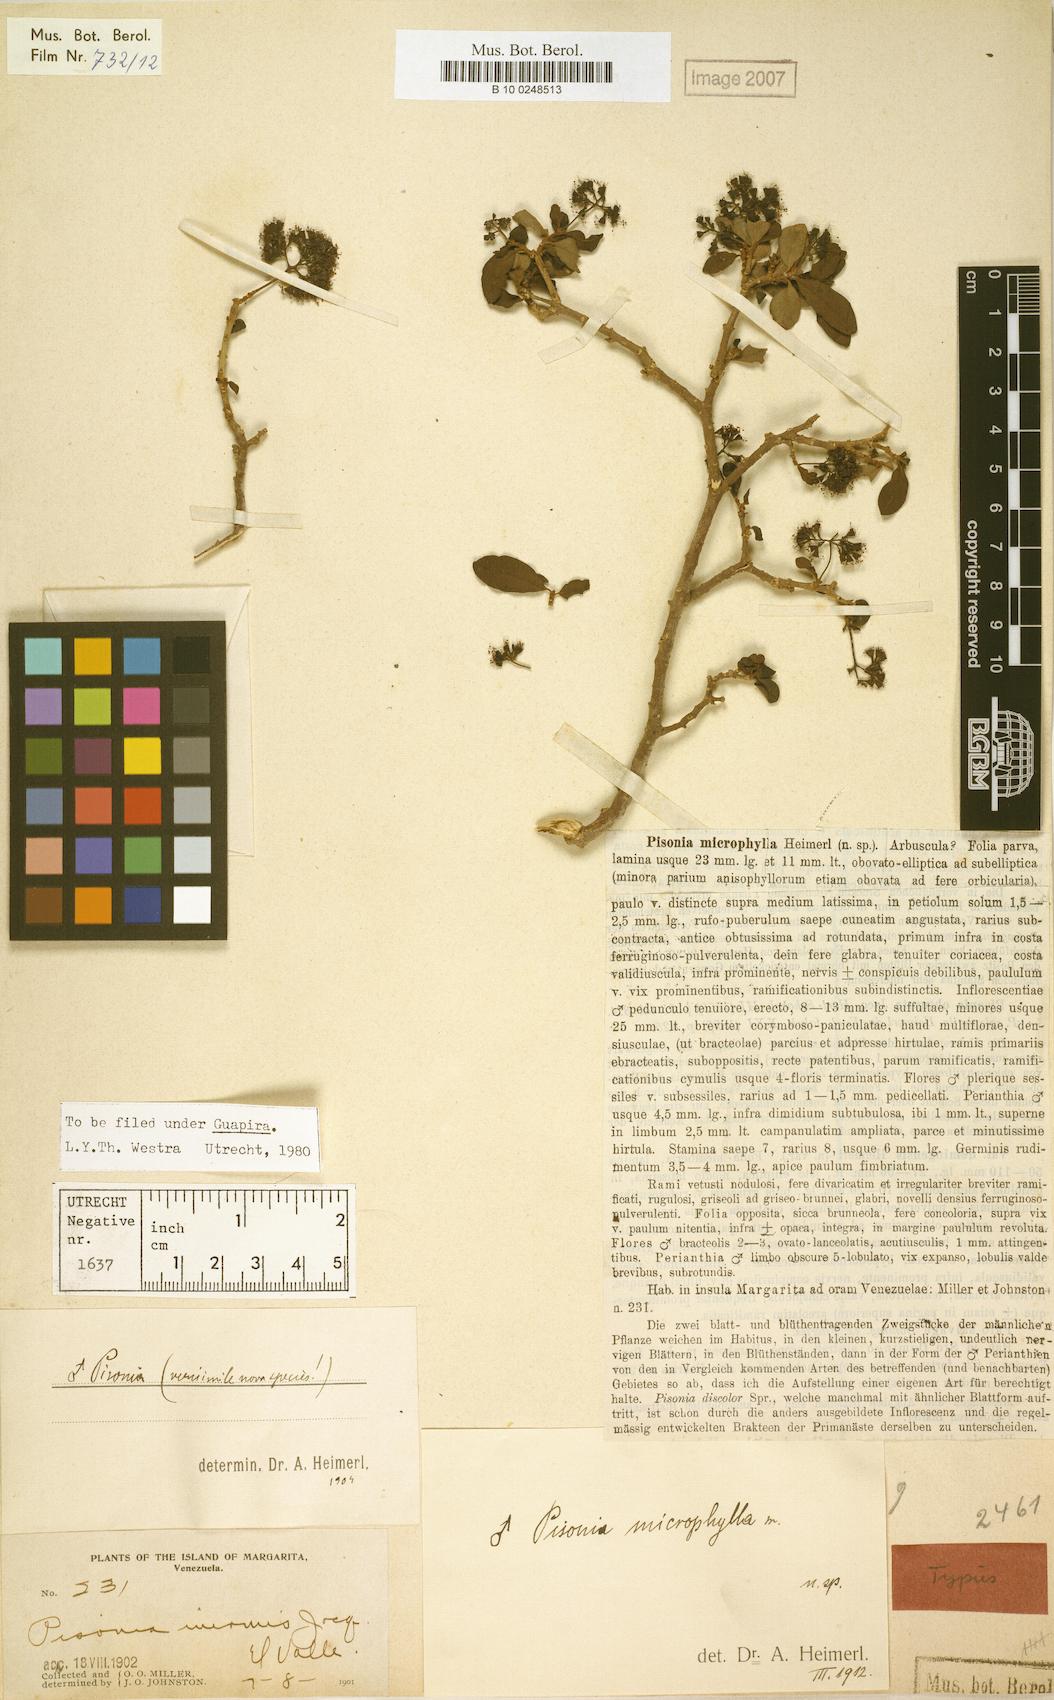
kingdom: Plantae
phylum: Tracheophyta
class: Magnoliopsida
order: Caryophyllales
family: Nyctaginaceae
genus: Guapira
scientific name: Guapira microphylla
